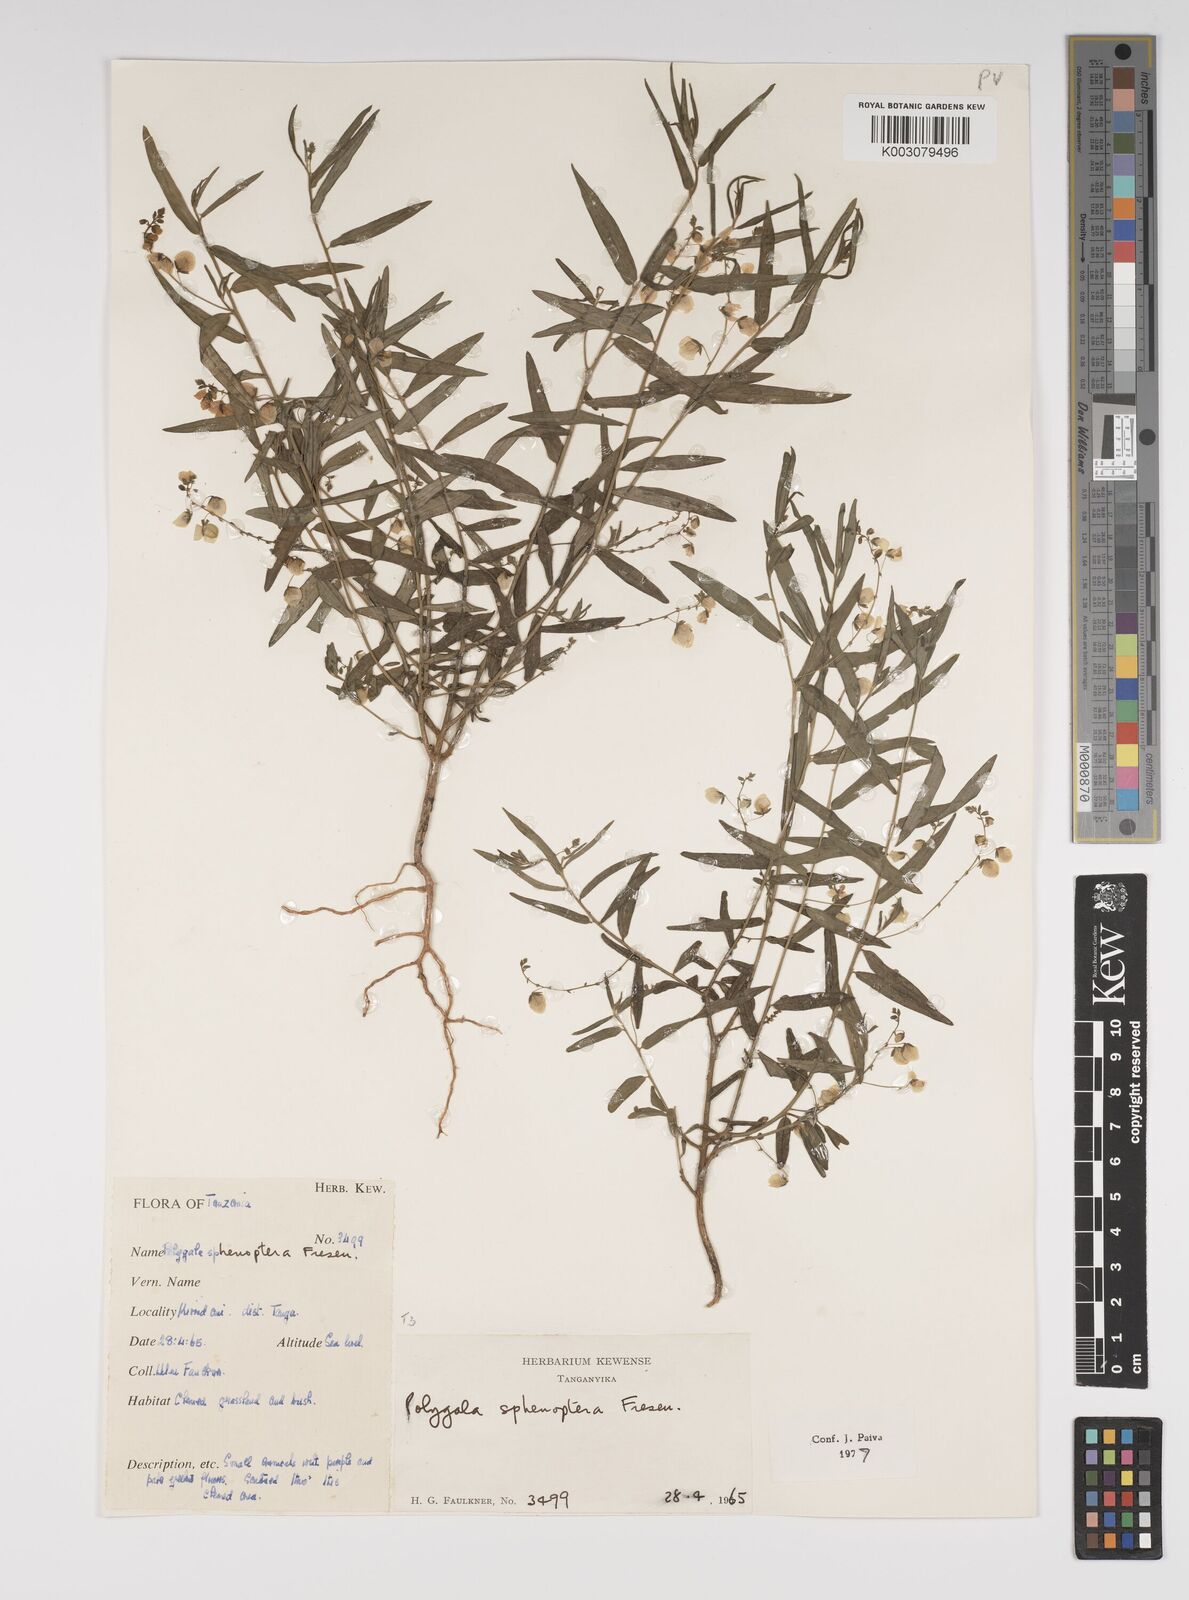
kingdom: Plantae
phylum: Tracheophyta
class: Magnoliopsida
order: Fabales
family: Polygalaceae
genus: Polygala
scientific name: Polygala sphenoptera
